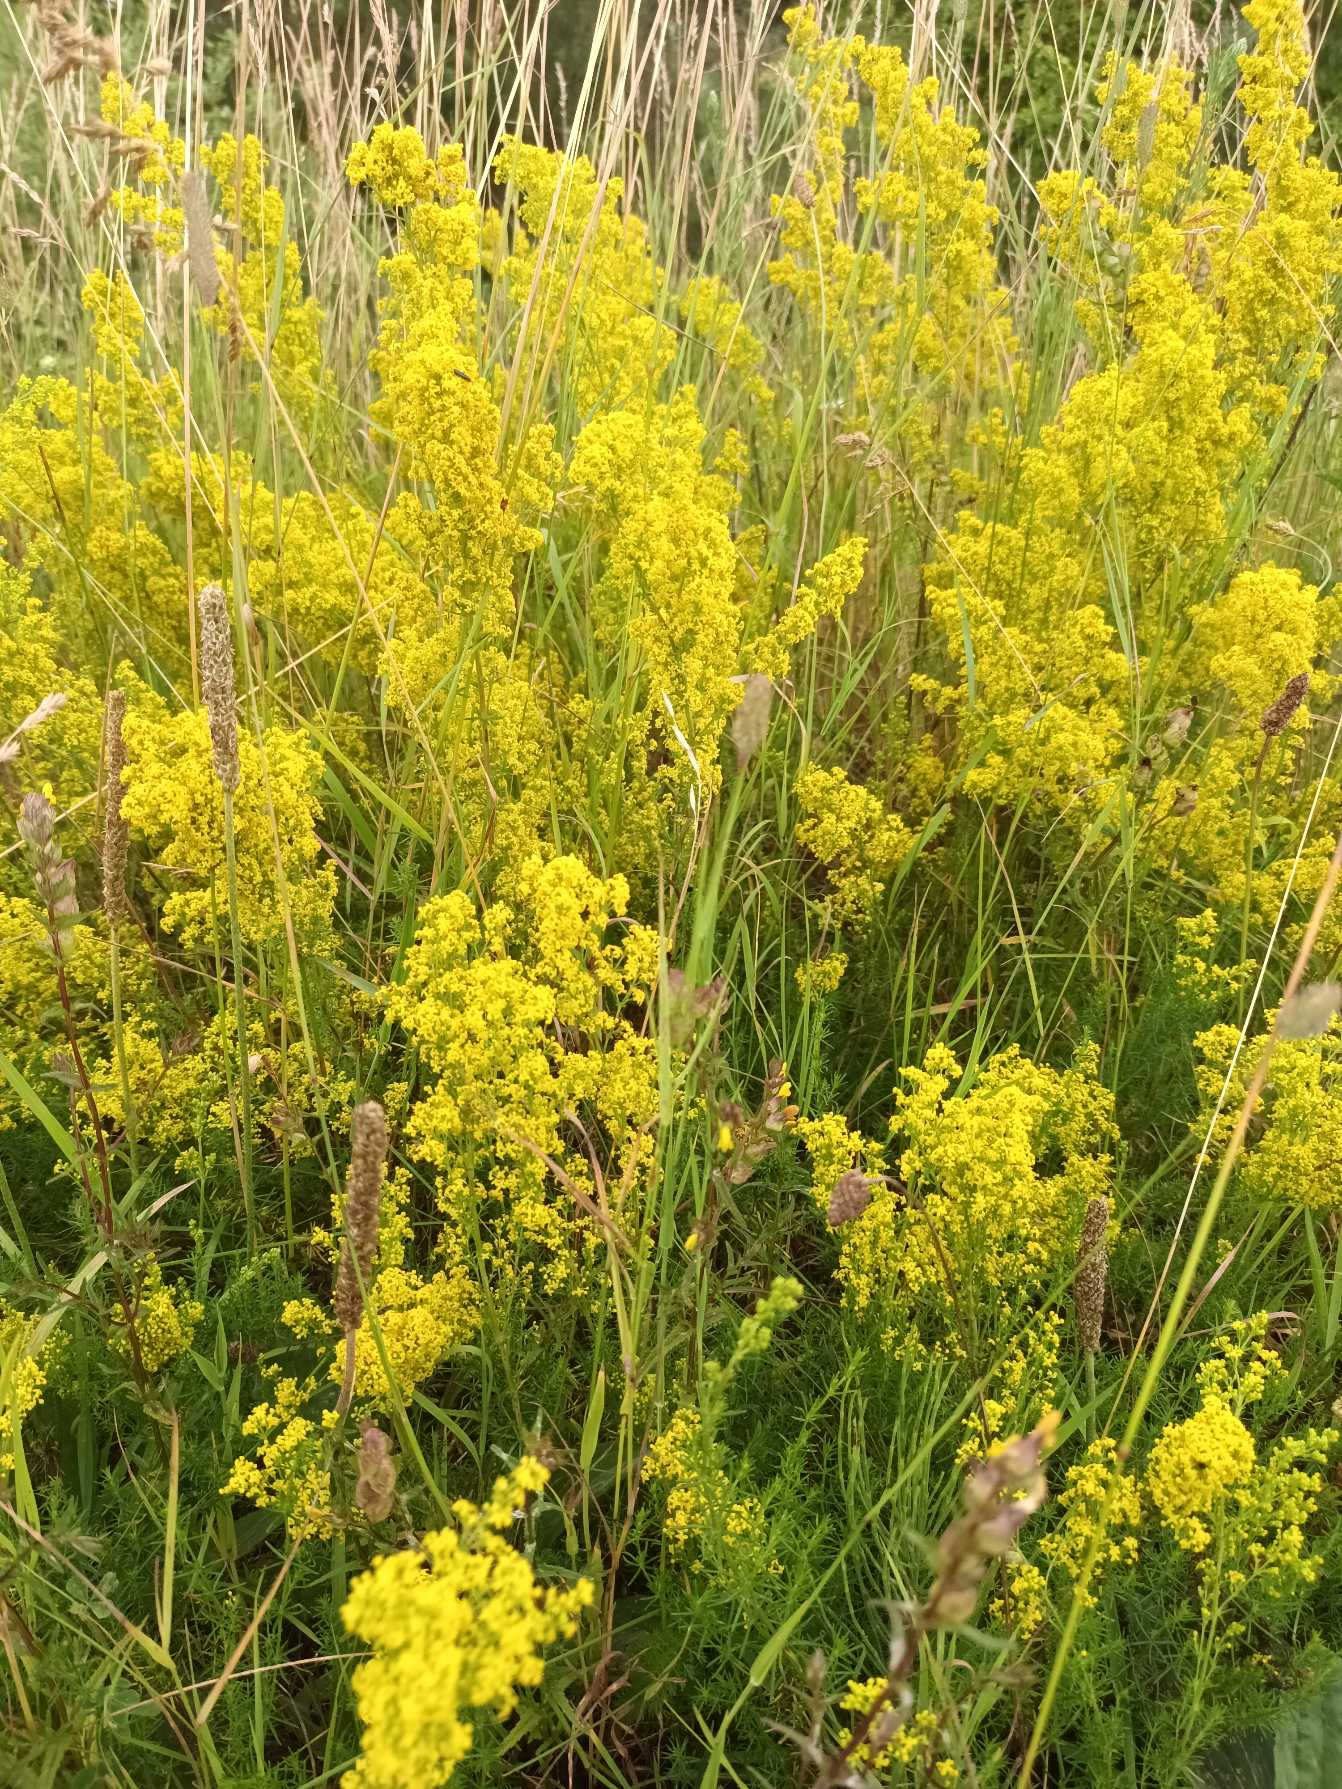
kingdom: Plantae
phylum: Tracheophyta
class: Magnoliopsida
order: Gentianales
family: Rubiaceae
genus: Galium
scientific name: Galium verum
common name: Gul snerre
